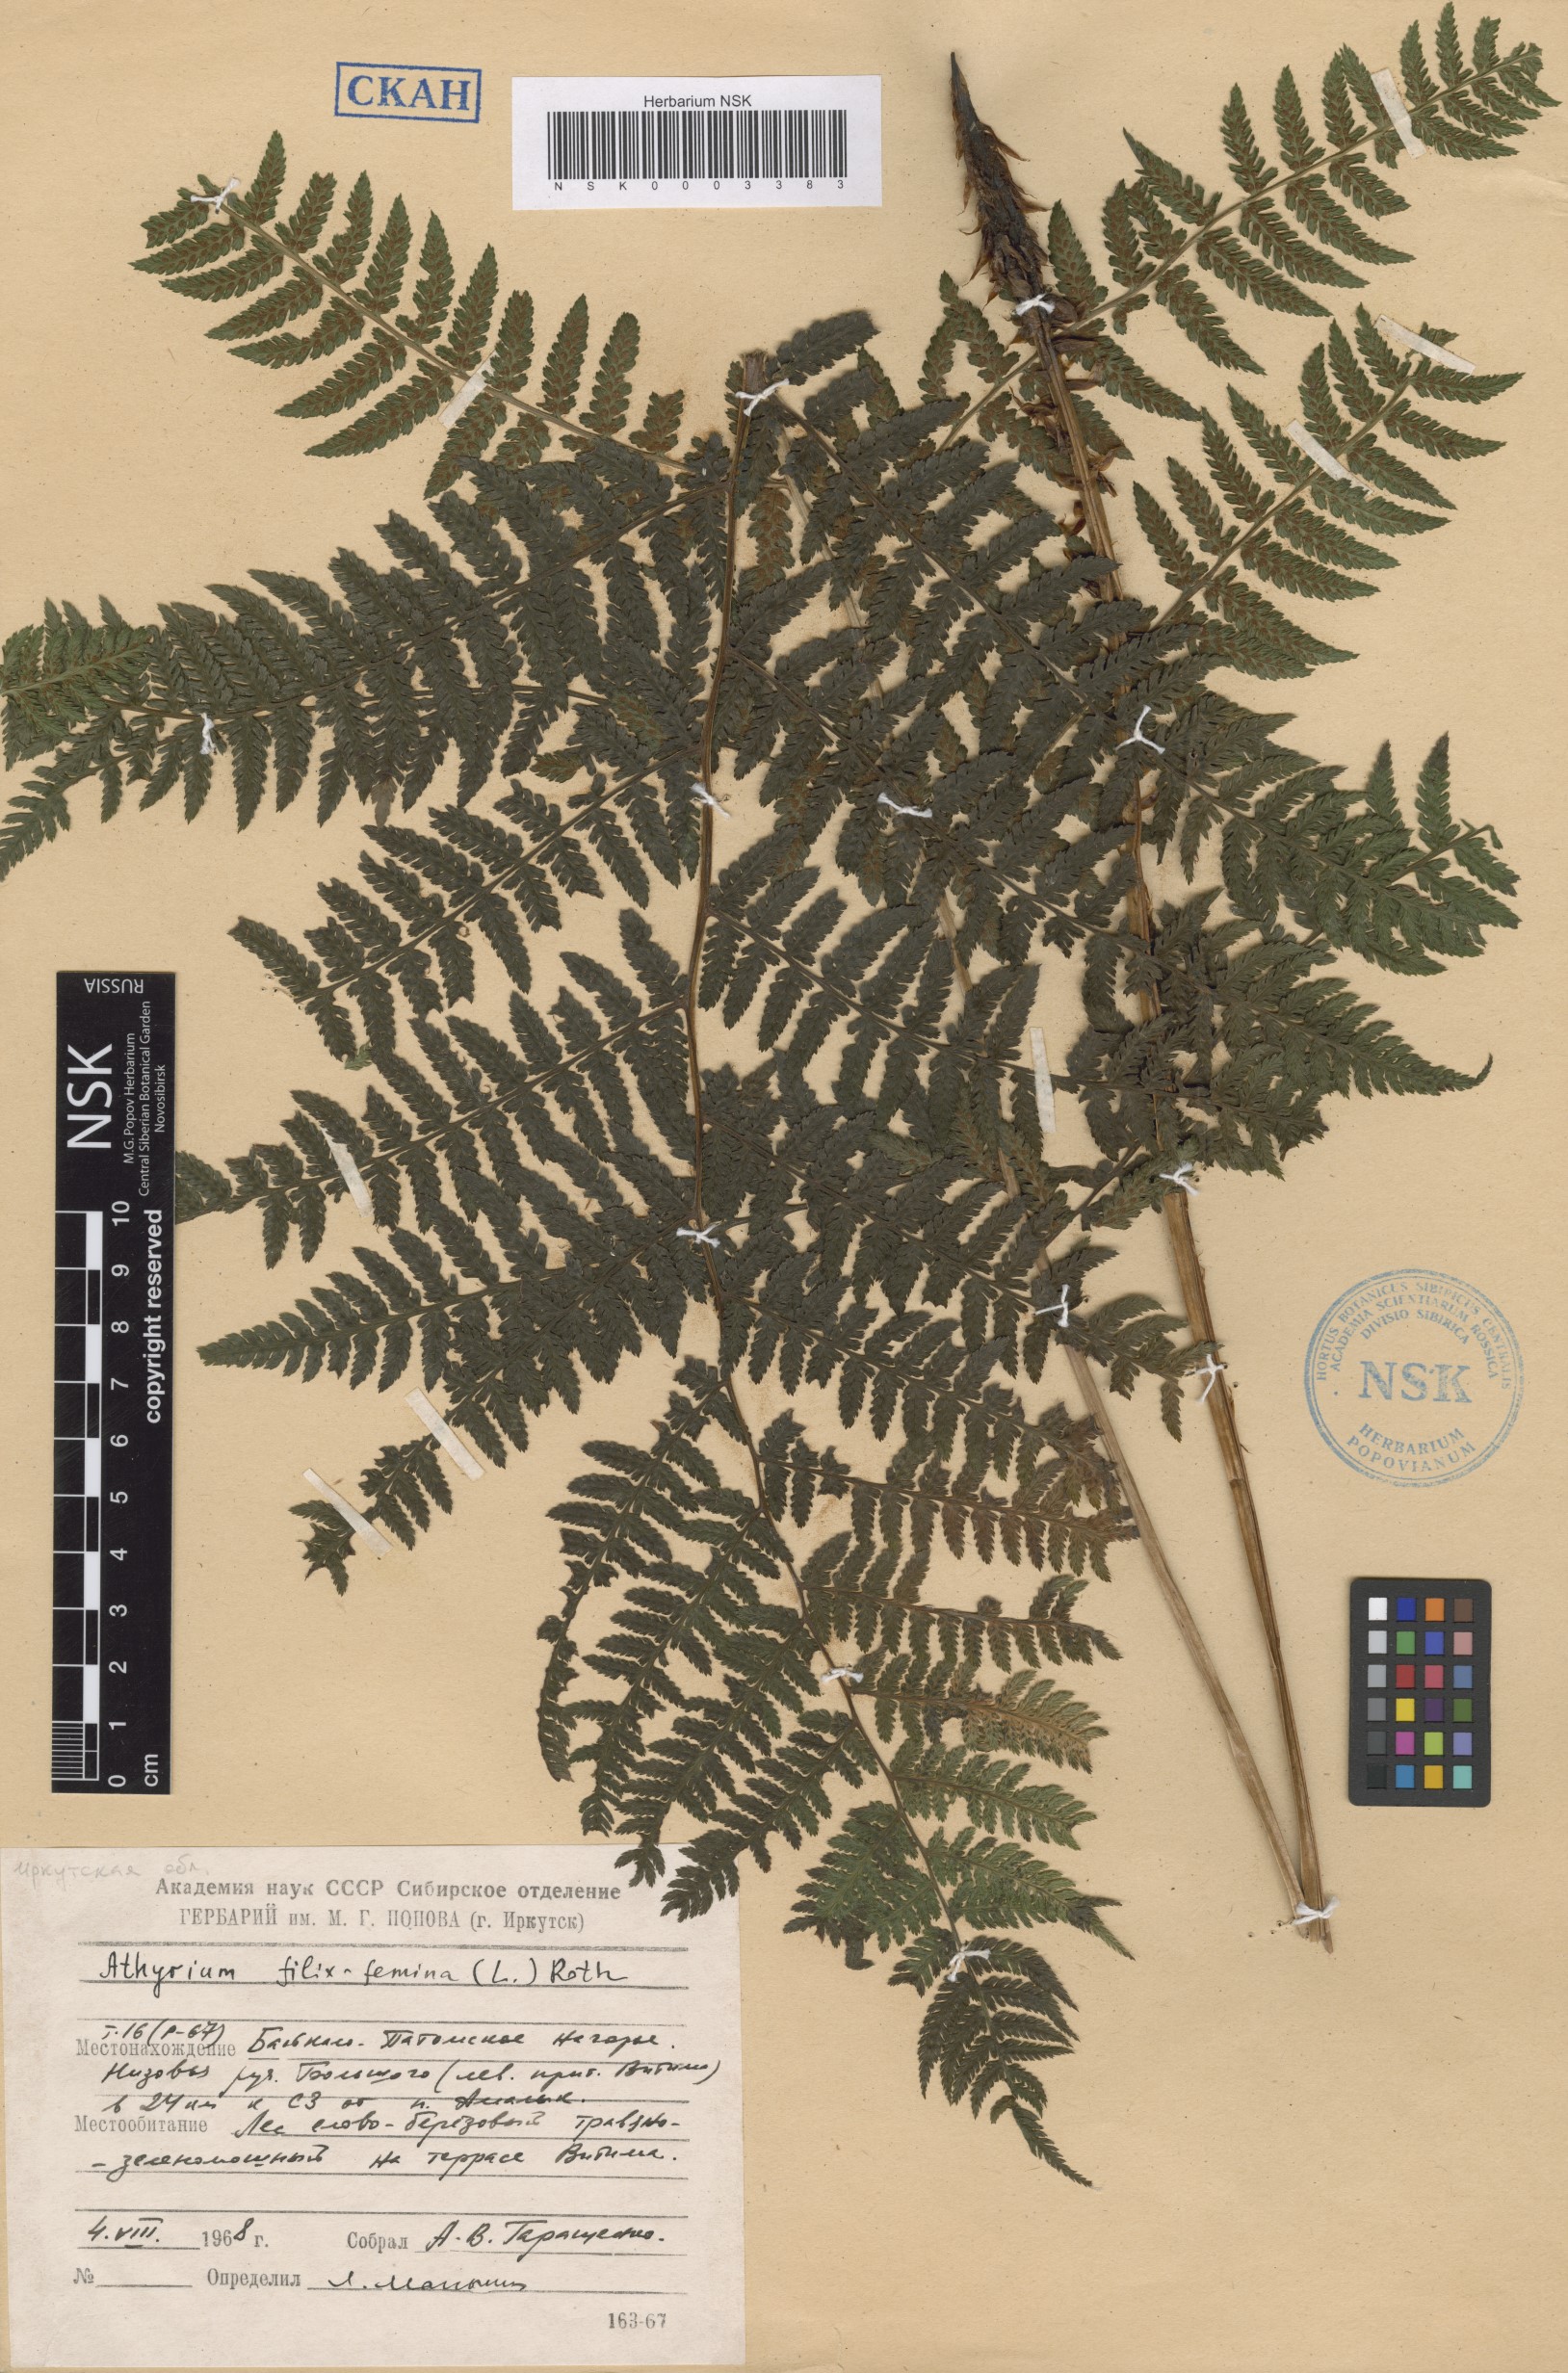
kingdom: Plantae
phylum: Tracheophyta
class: Polypodiopsida
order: Polypodiales
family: Athyriaceae
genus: Athyrium
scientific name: Athyrium filix-femina
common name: Lady fern
